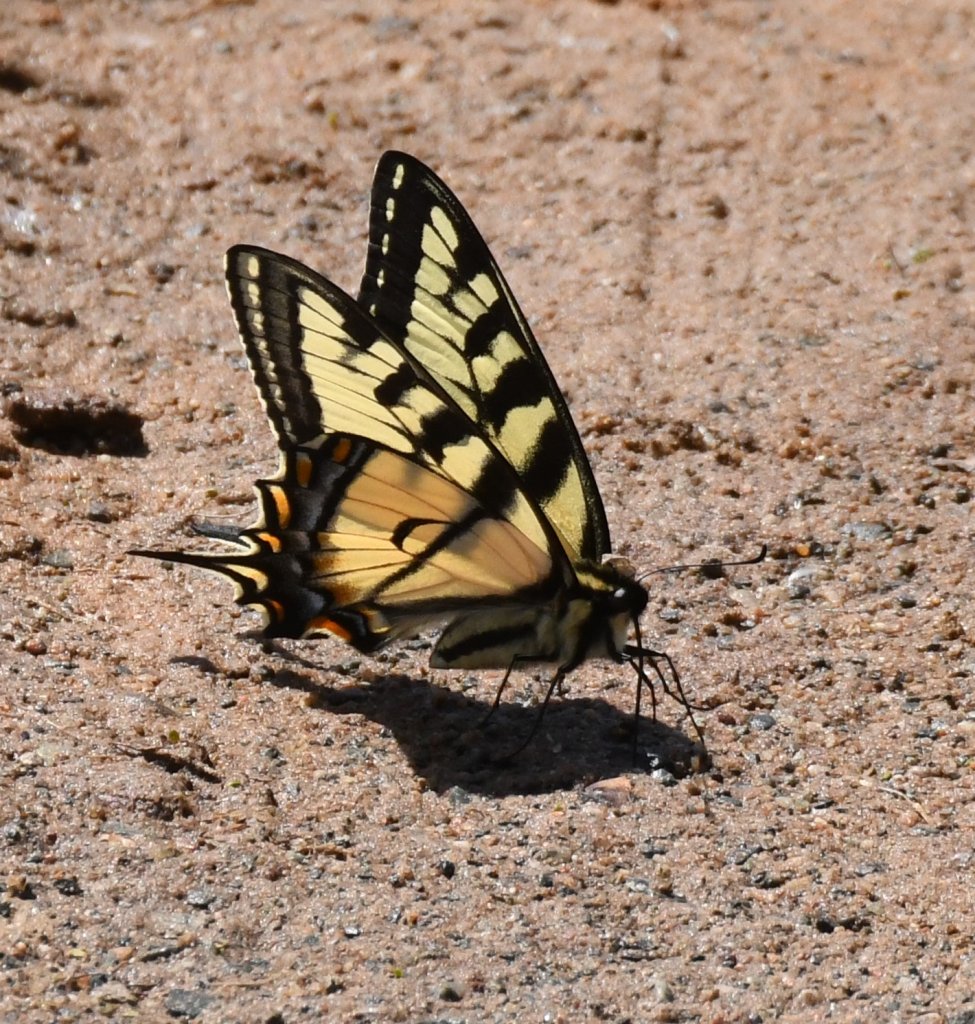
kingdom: Animalia
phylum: Arthropoda
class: Insecta
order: Lepidoptera
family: Papilionidae
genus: Pterourus
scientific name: Pterourus canadensis
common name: Canadian Tiger Swallowtail
